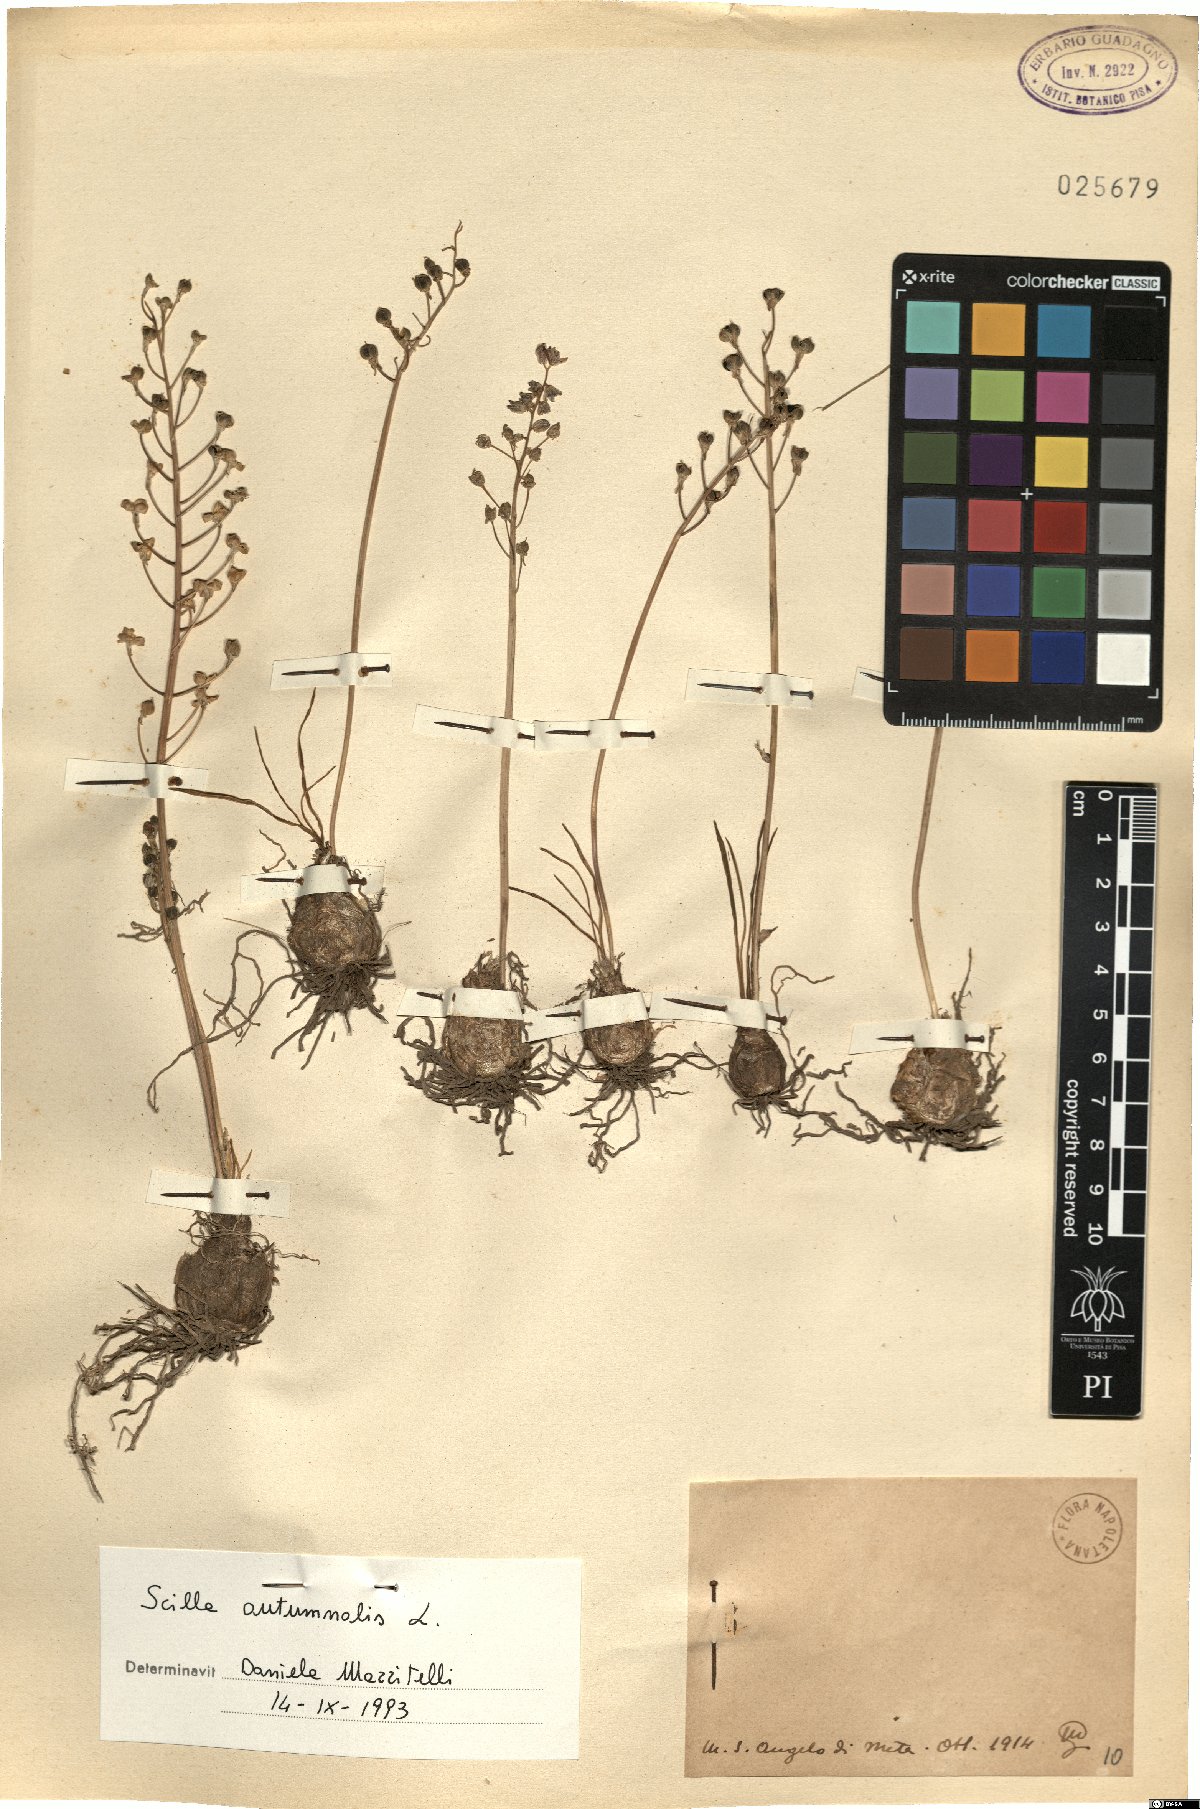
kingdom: Plantae
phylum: Tracheophyta
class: Liliopsida
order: Asparagales
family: Asparagaceae
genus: Prospero
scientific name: Prospero autumnale
